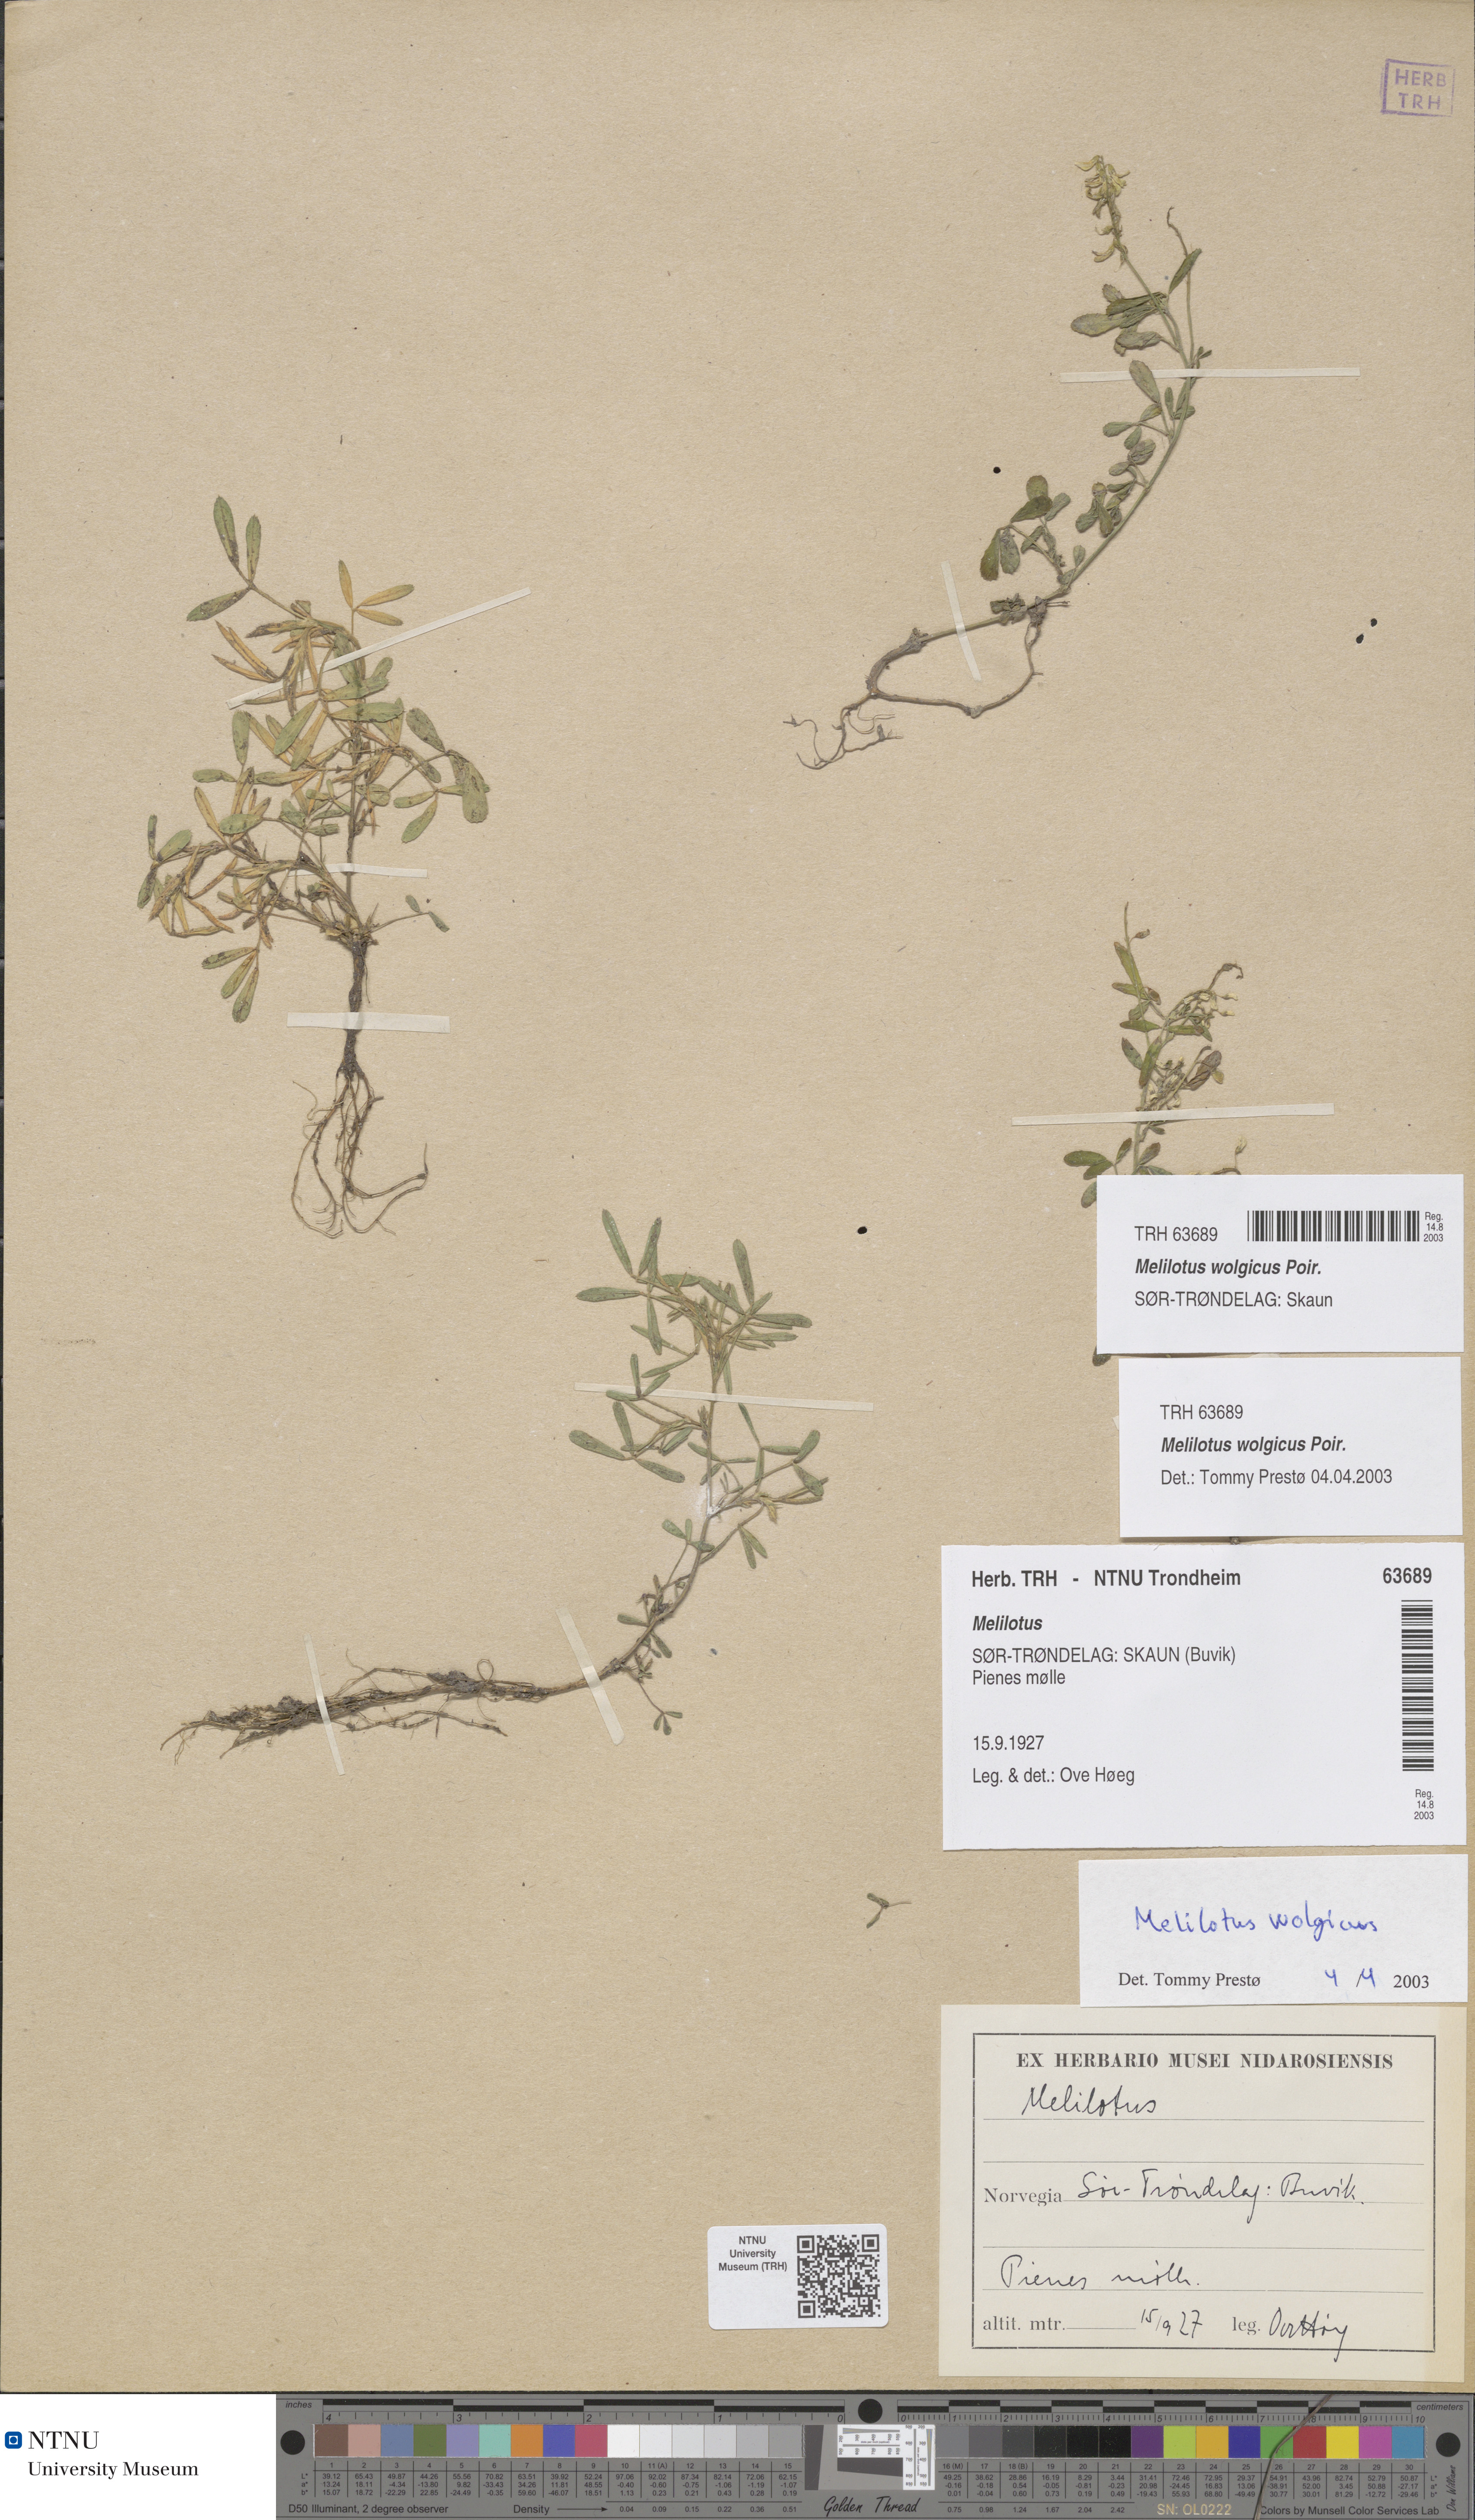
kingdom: Plantae
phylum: Tracheophyta
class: Magnoliopsida
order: Fabales
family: Fabaceae
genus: Melilotus
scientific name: Melilotus wolgicus
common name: Volga sweet-clover
